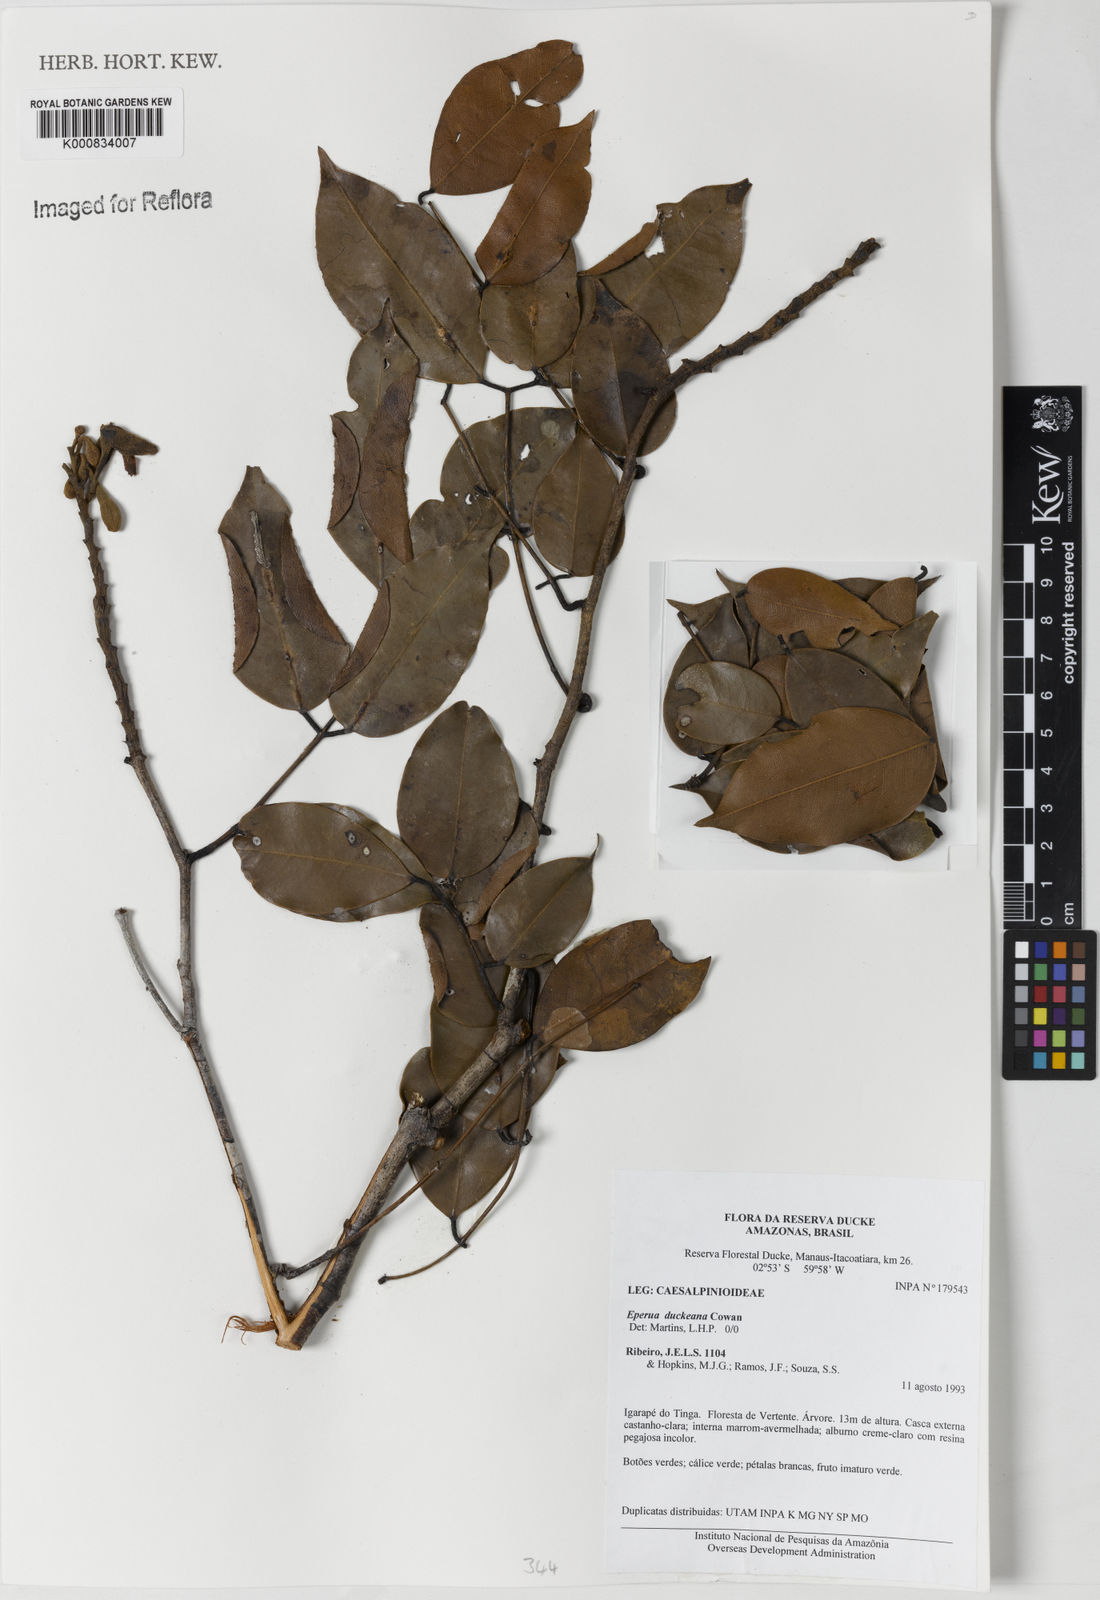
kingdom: Plantae
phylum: Tracheophyta
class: Magnoliopsida
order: Fabales
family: Fabaceae
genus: Eperua
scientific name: Eperua duckeana
